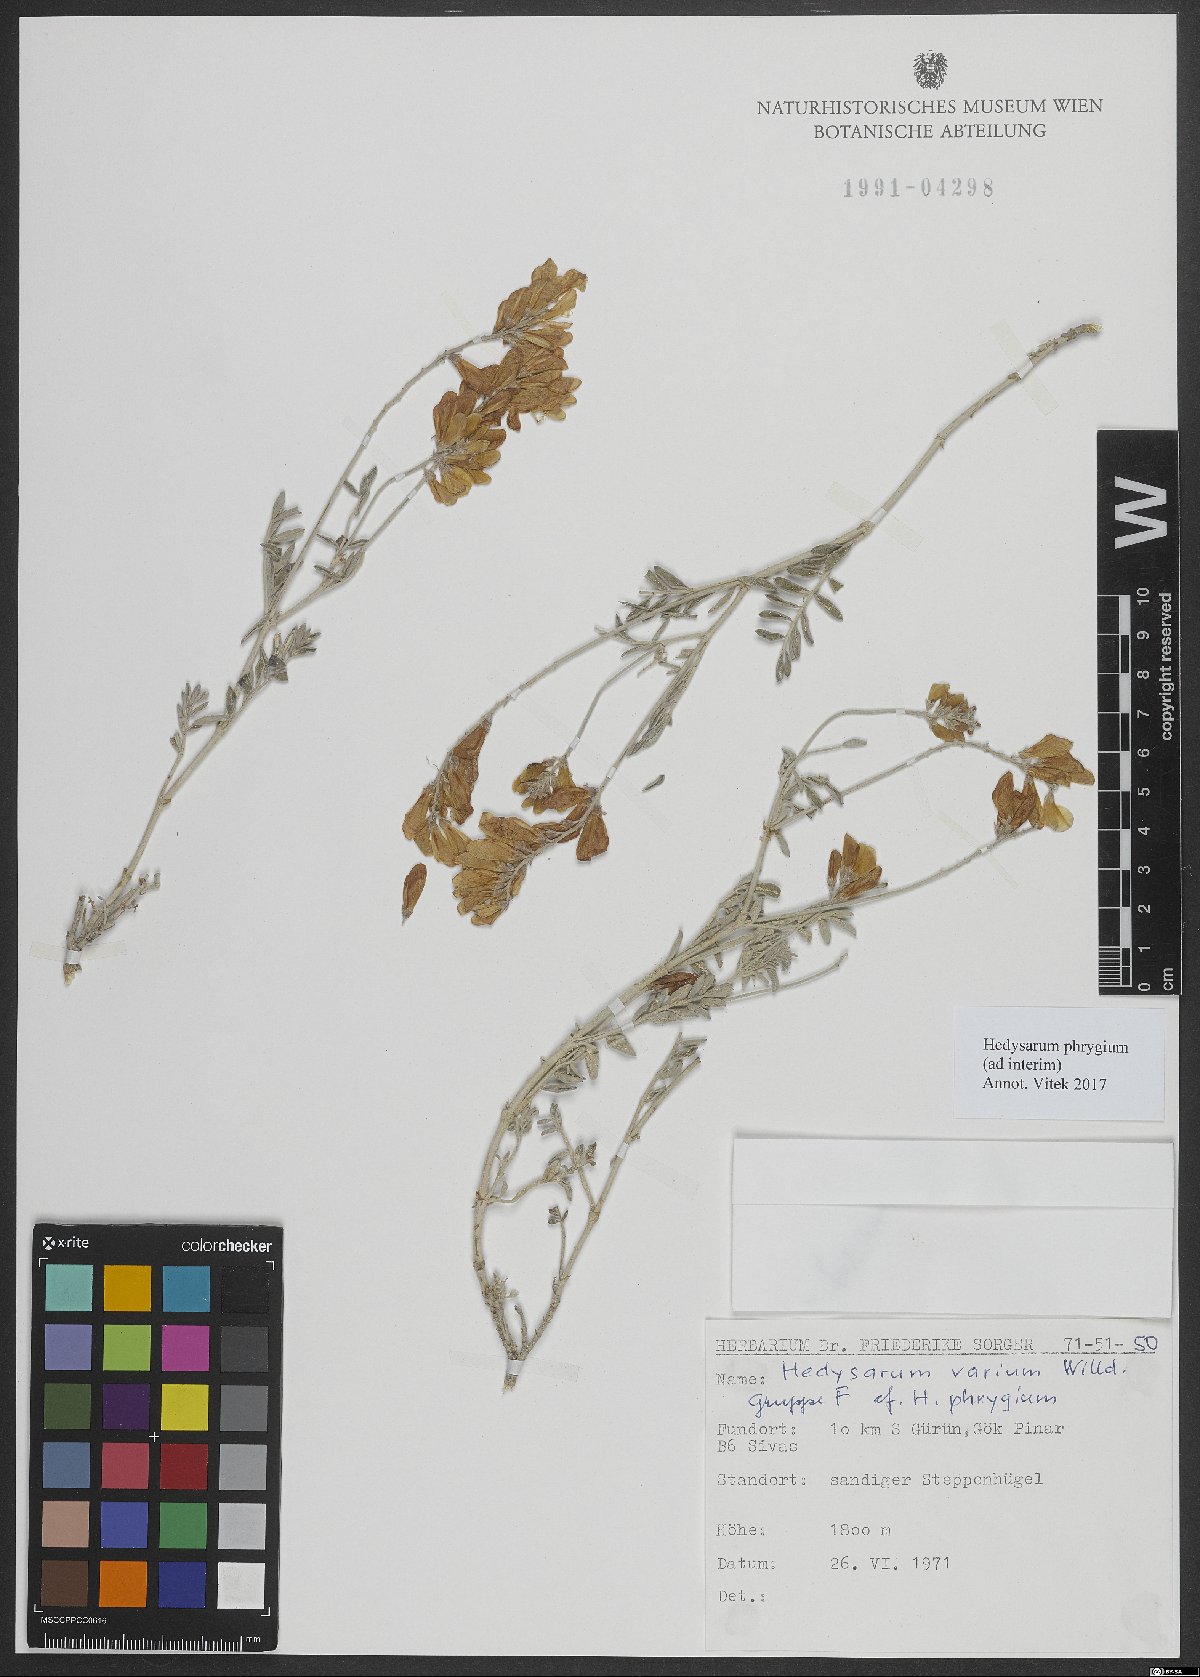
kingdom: Plantae
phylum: Tracheophyta
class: Magnoliopsida
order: Fabales
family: Fabaceae
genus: Hedysarum
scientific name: Hedysarum varium
